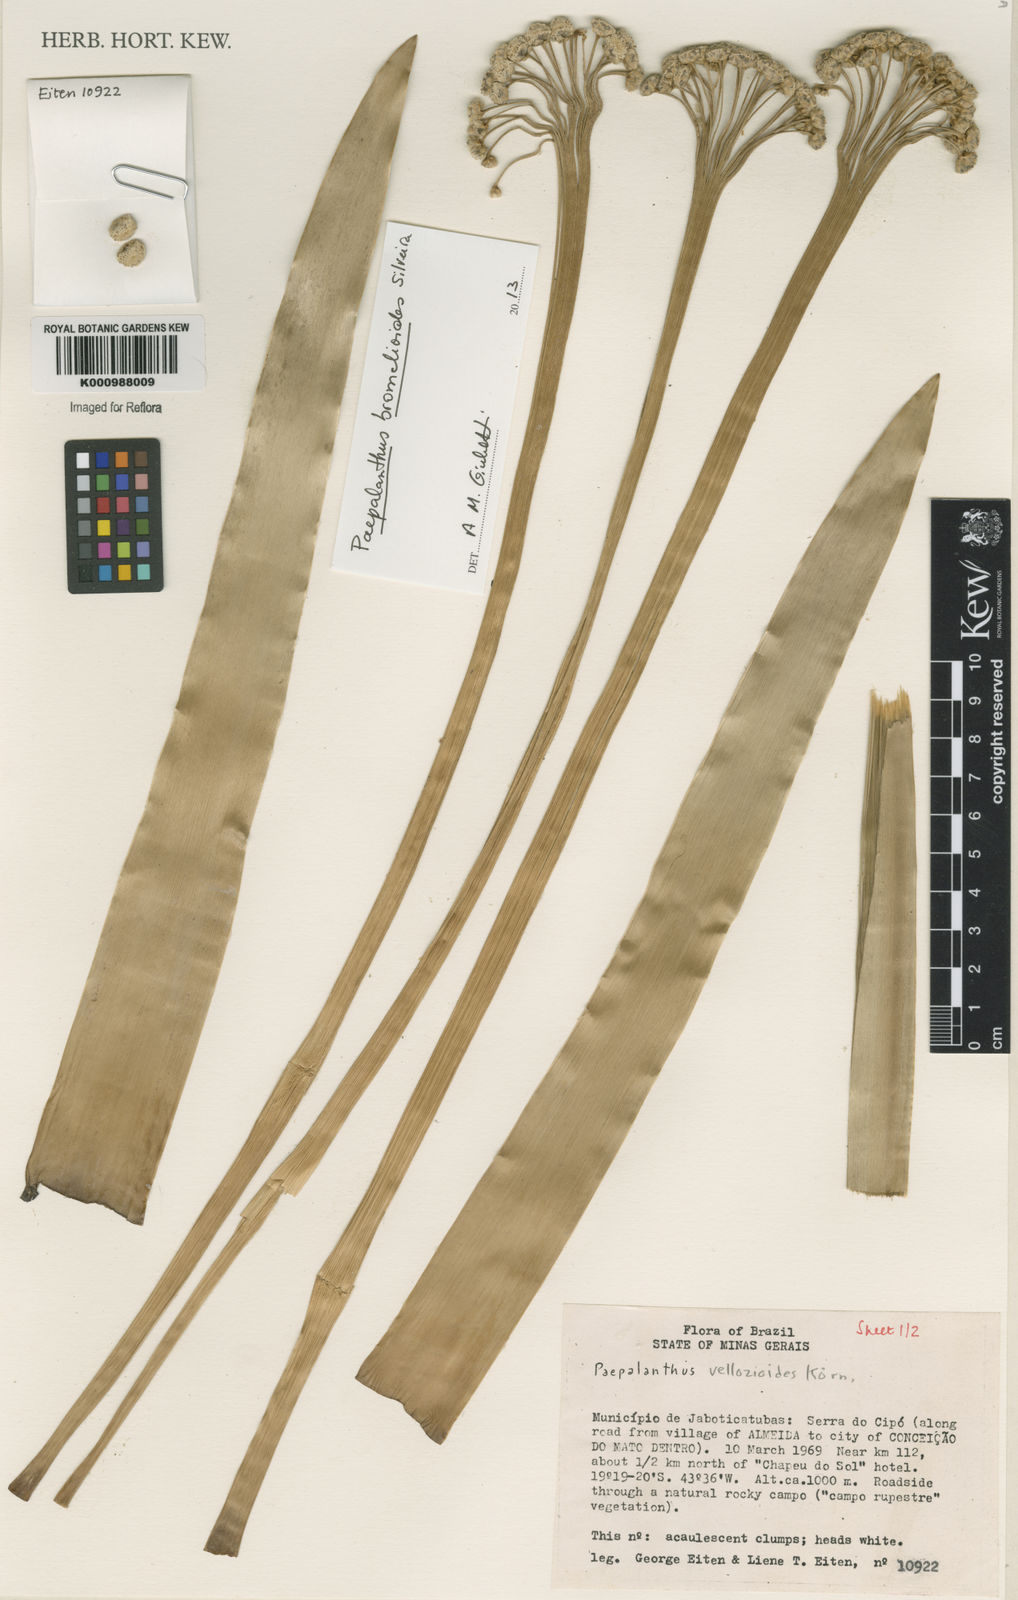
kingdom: Plantae
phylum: Tracheophyta
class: Liliopsida
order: Poales
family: Eriocaulaceae
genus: Paepalanthus
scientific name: Paepalanthus bromelioides
